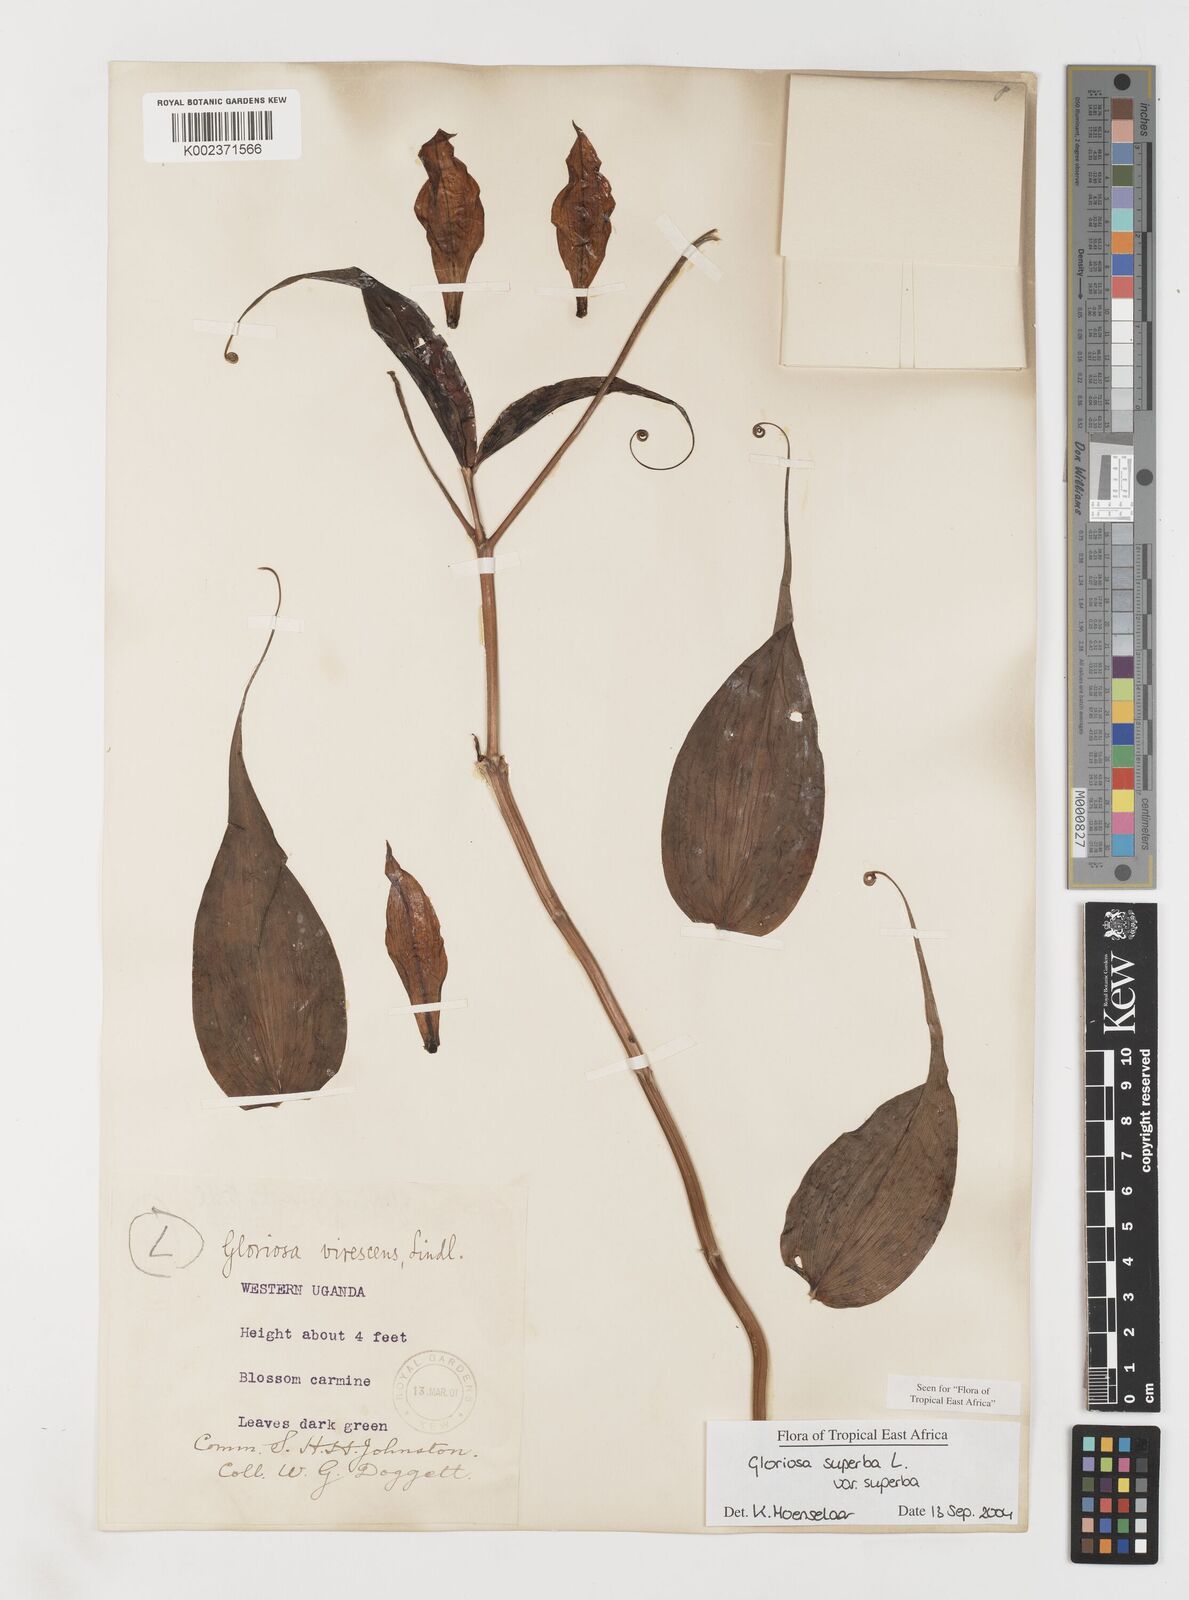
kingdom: Plantae
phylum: Tracheophyta
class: Liliopsida
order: Liliales
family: Colchicaceae
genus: Gloriosa
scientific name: Gloriosa simplex
